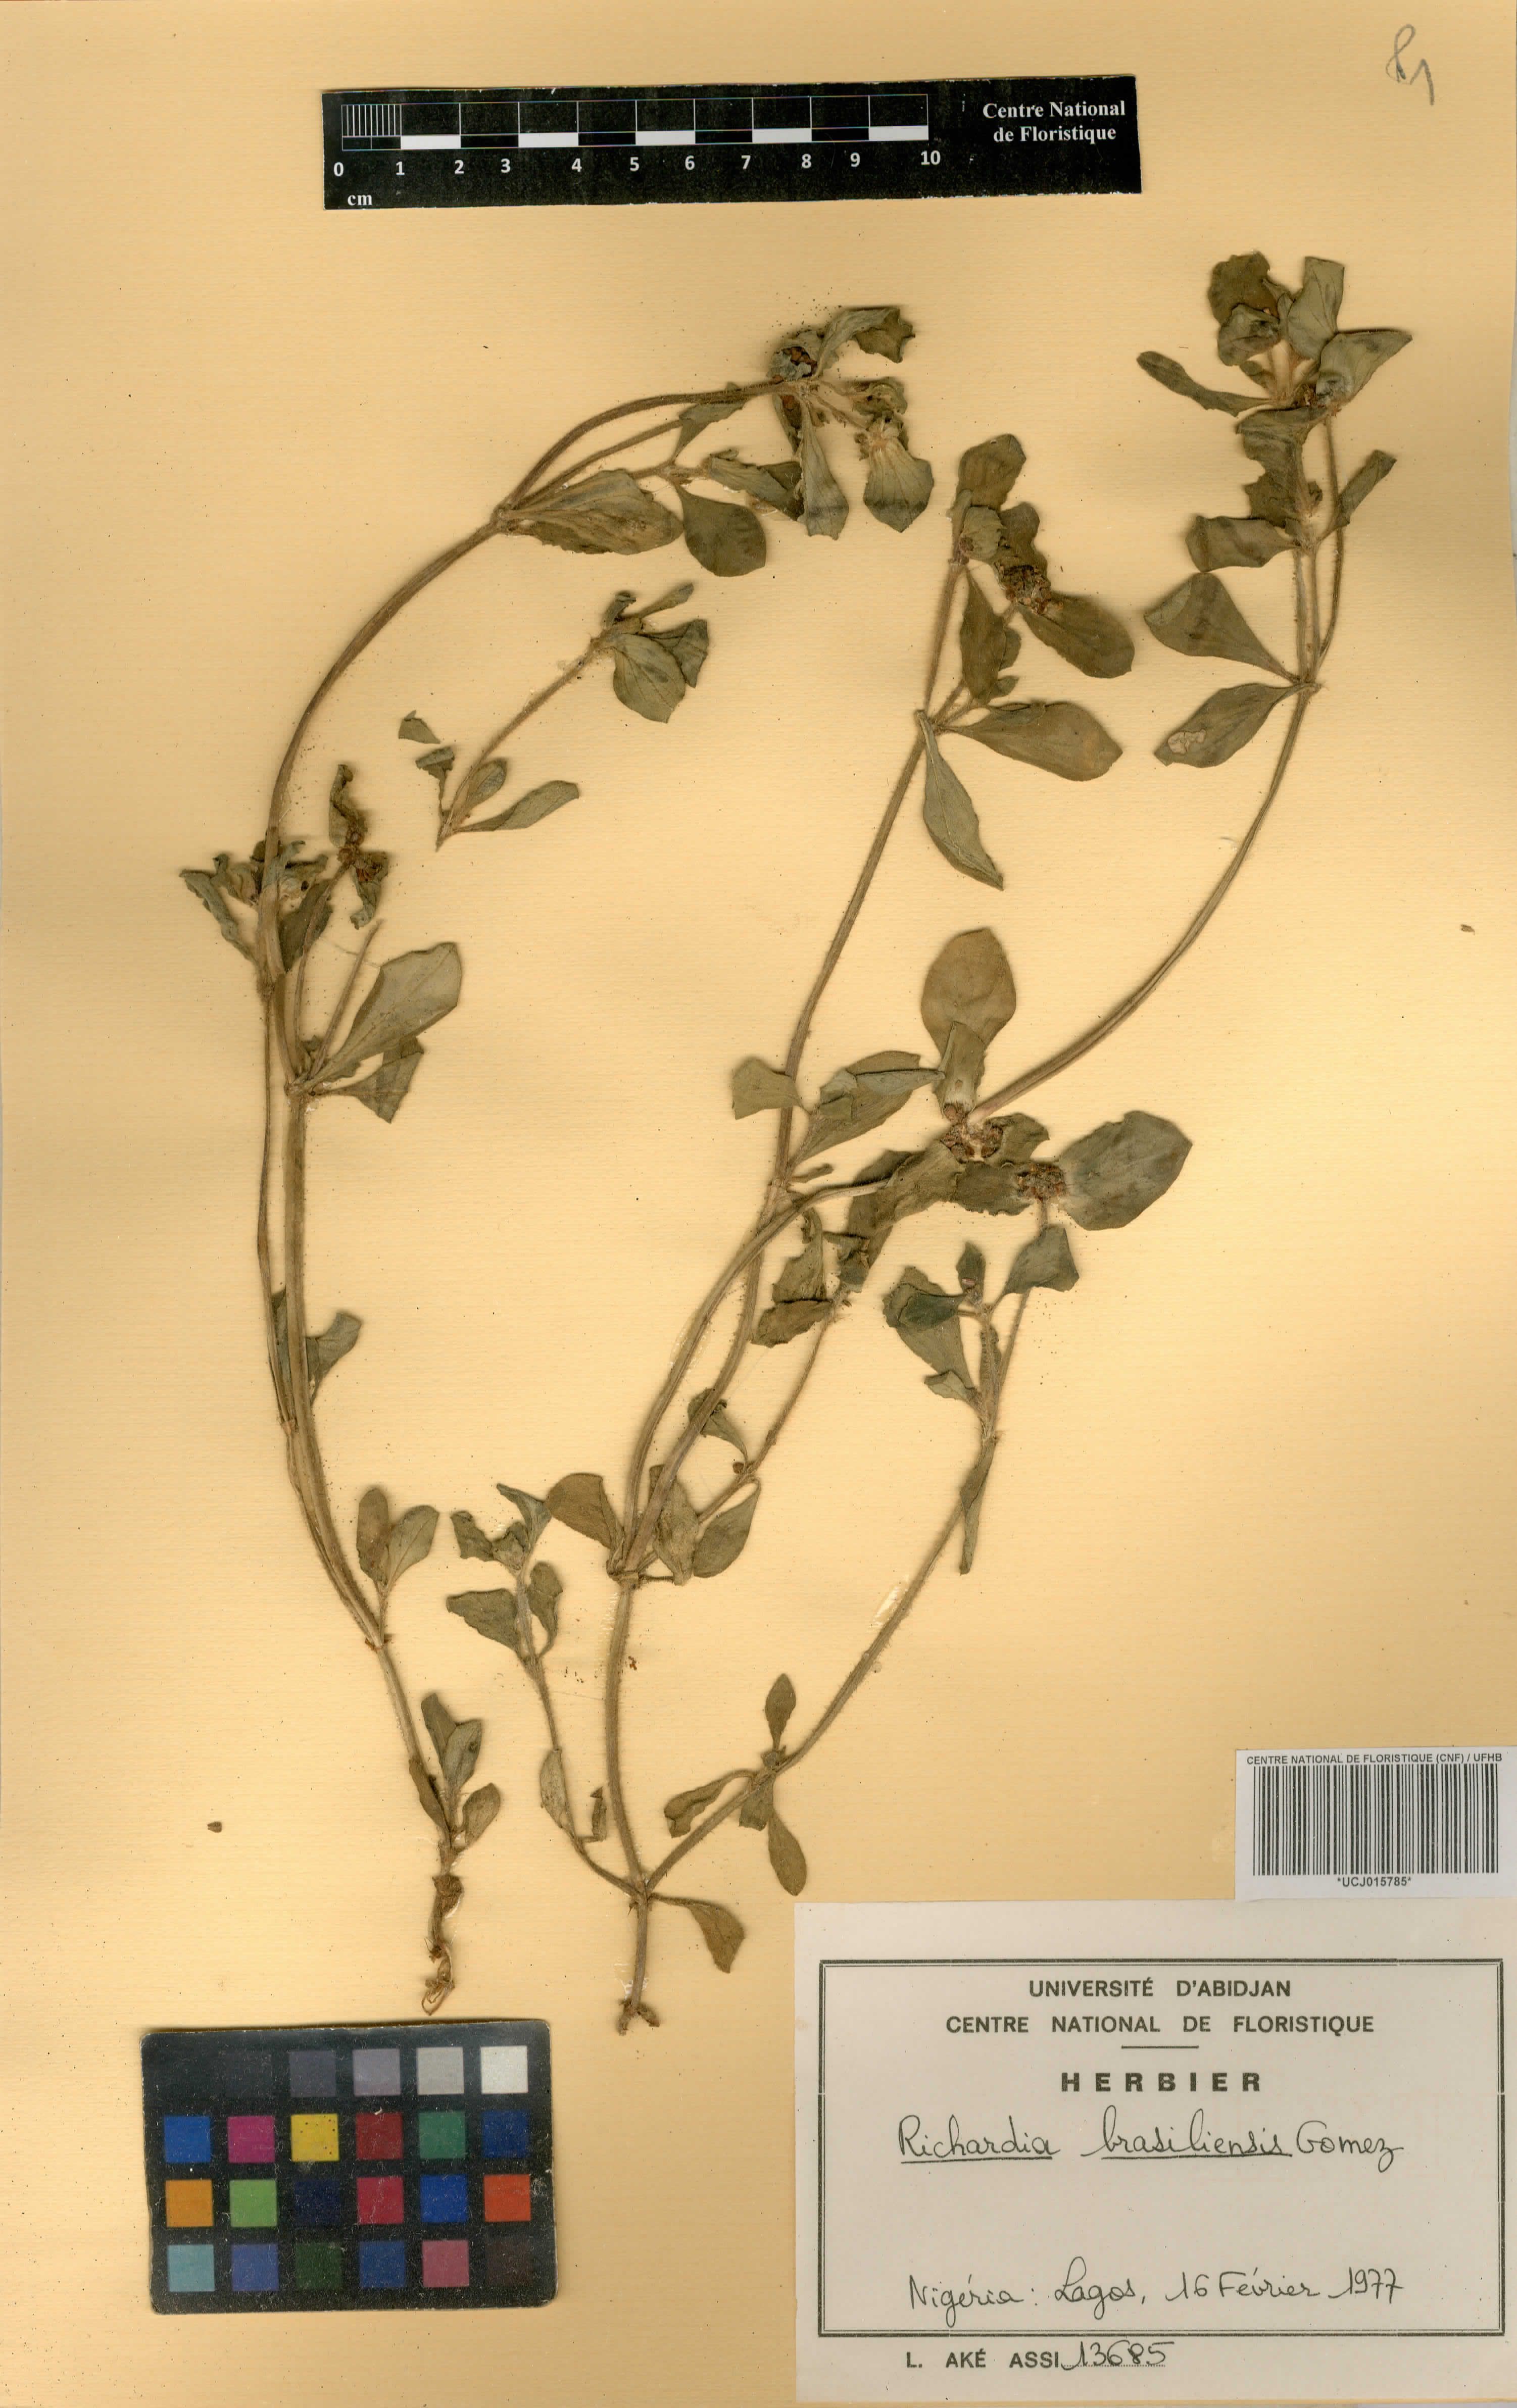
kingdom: Plantae
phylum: Tracheophyta
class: Magnoliopsida
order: Gentianales
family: Rubiaceae
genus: Richardia
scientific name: Richardia brasiliensis
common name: Tropical mexican clover
